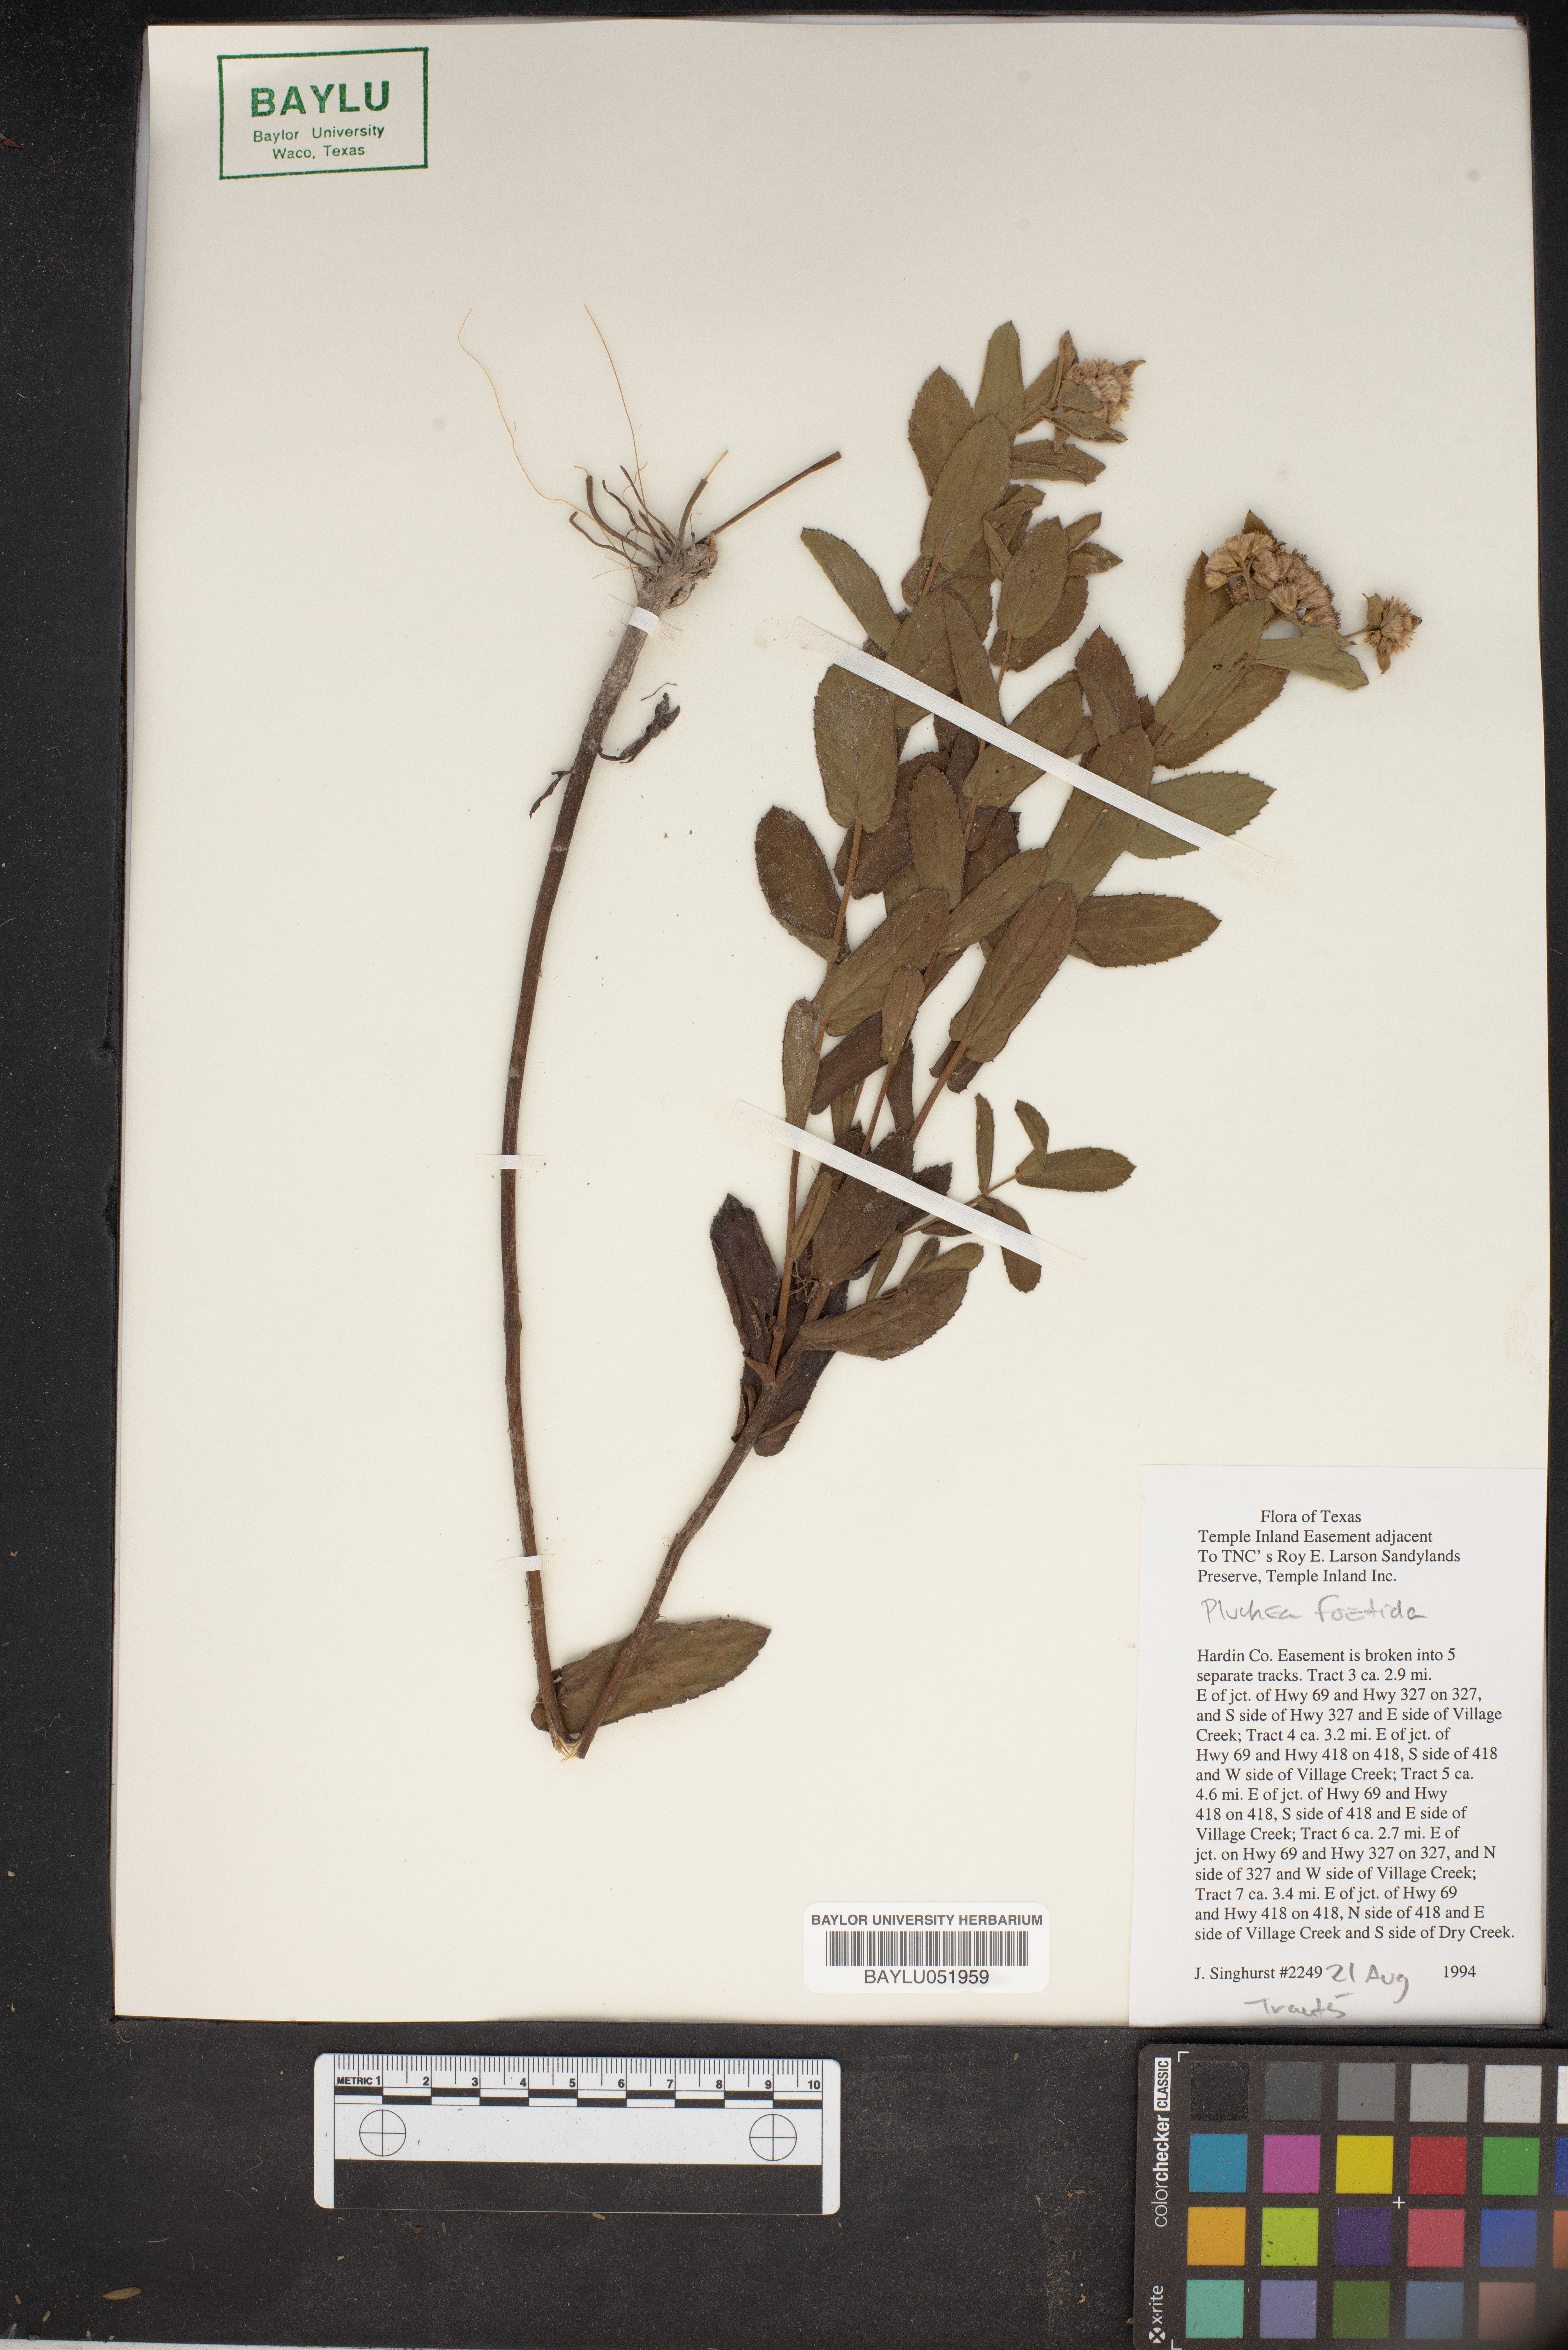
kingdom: Plantae
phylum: Tracheophyta
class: Magnoliopsida
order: Asterales
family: Asteraceae
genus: Pluchea
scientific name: Pluchea foetida
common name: Stinking camphorweed
